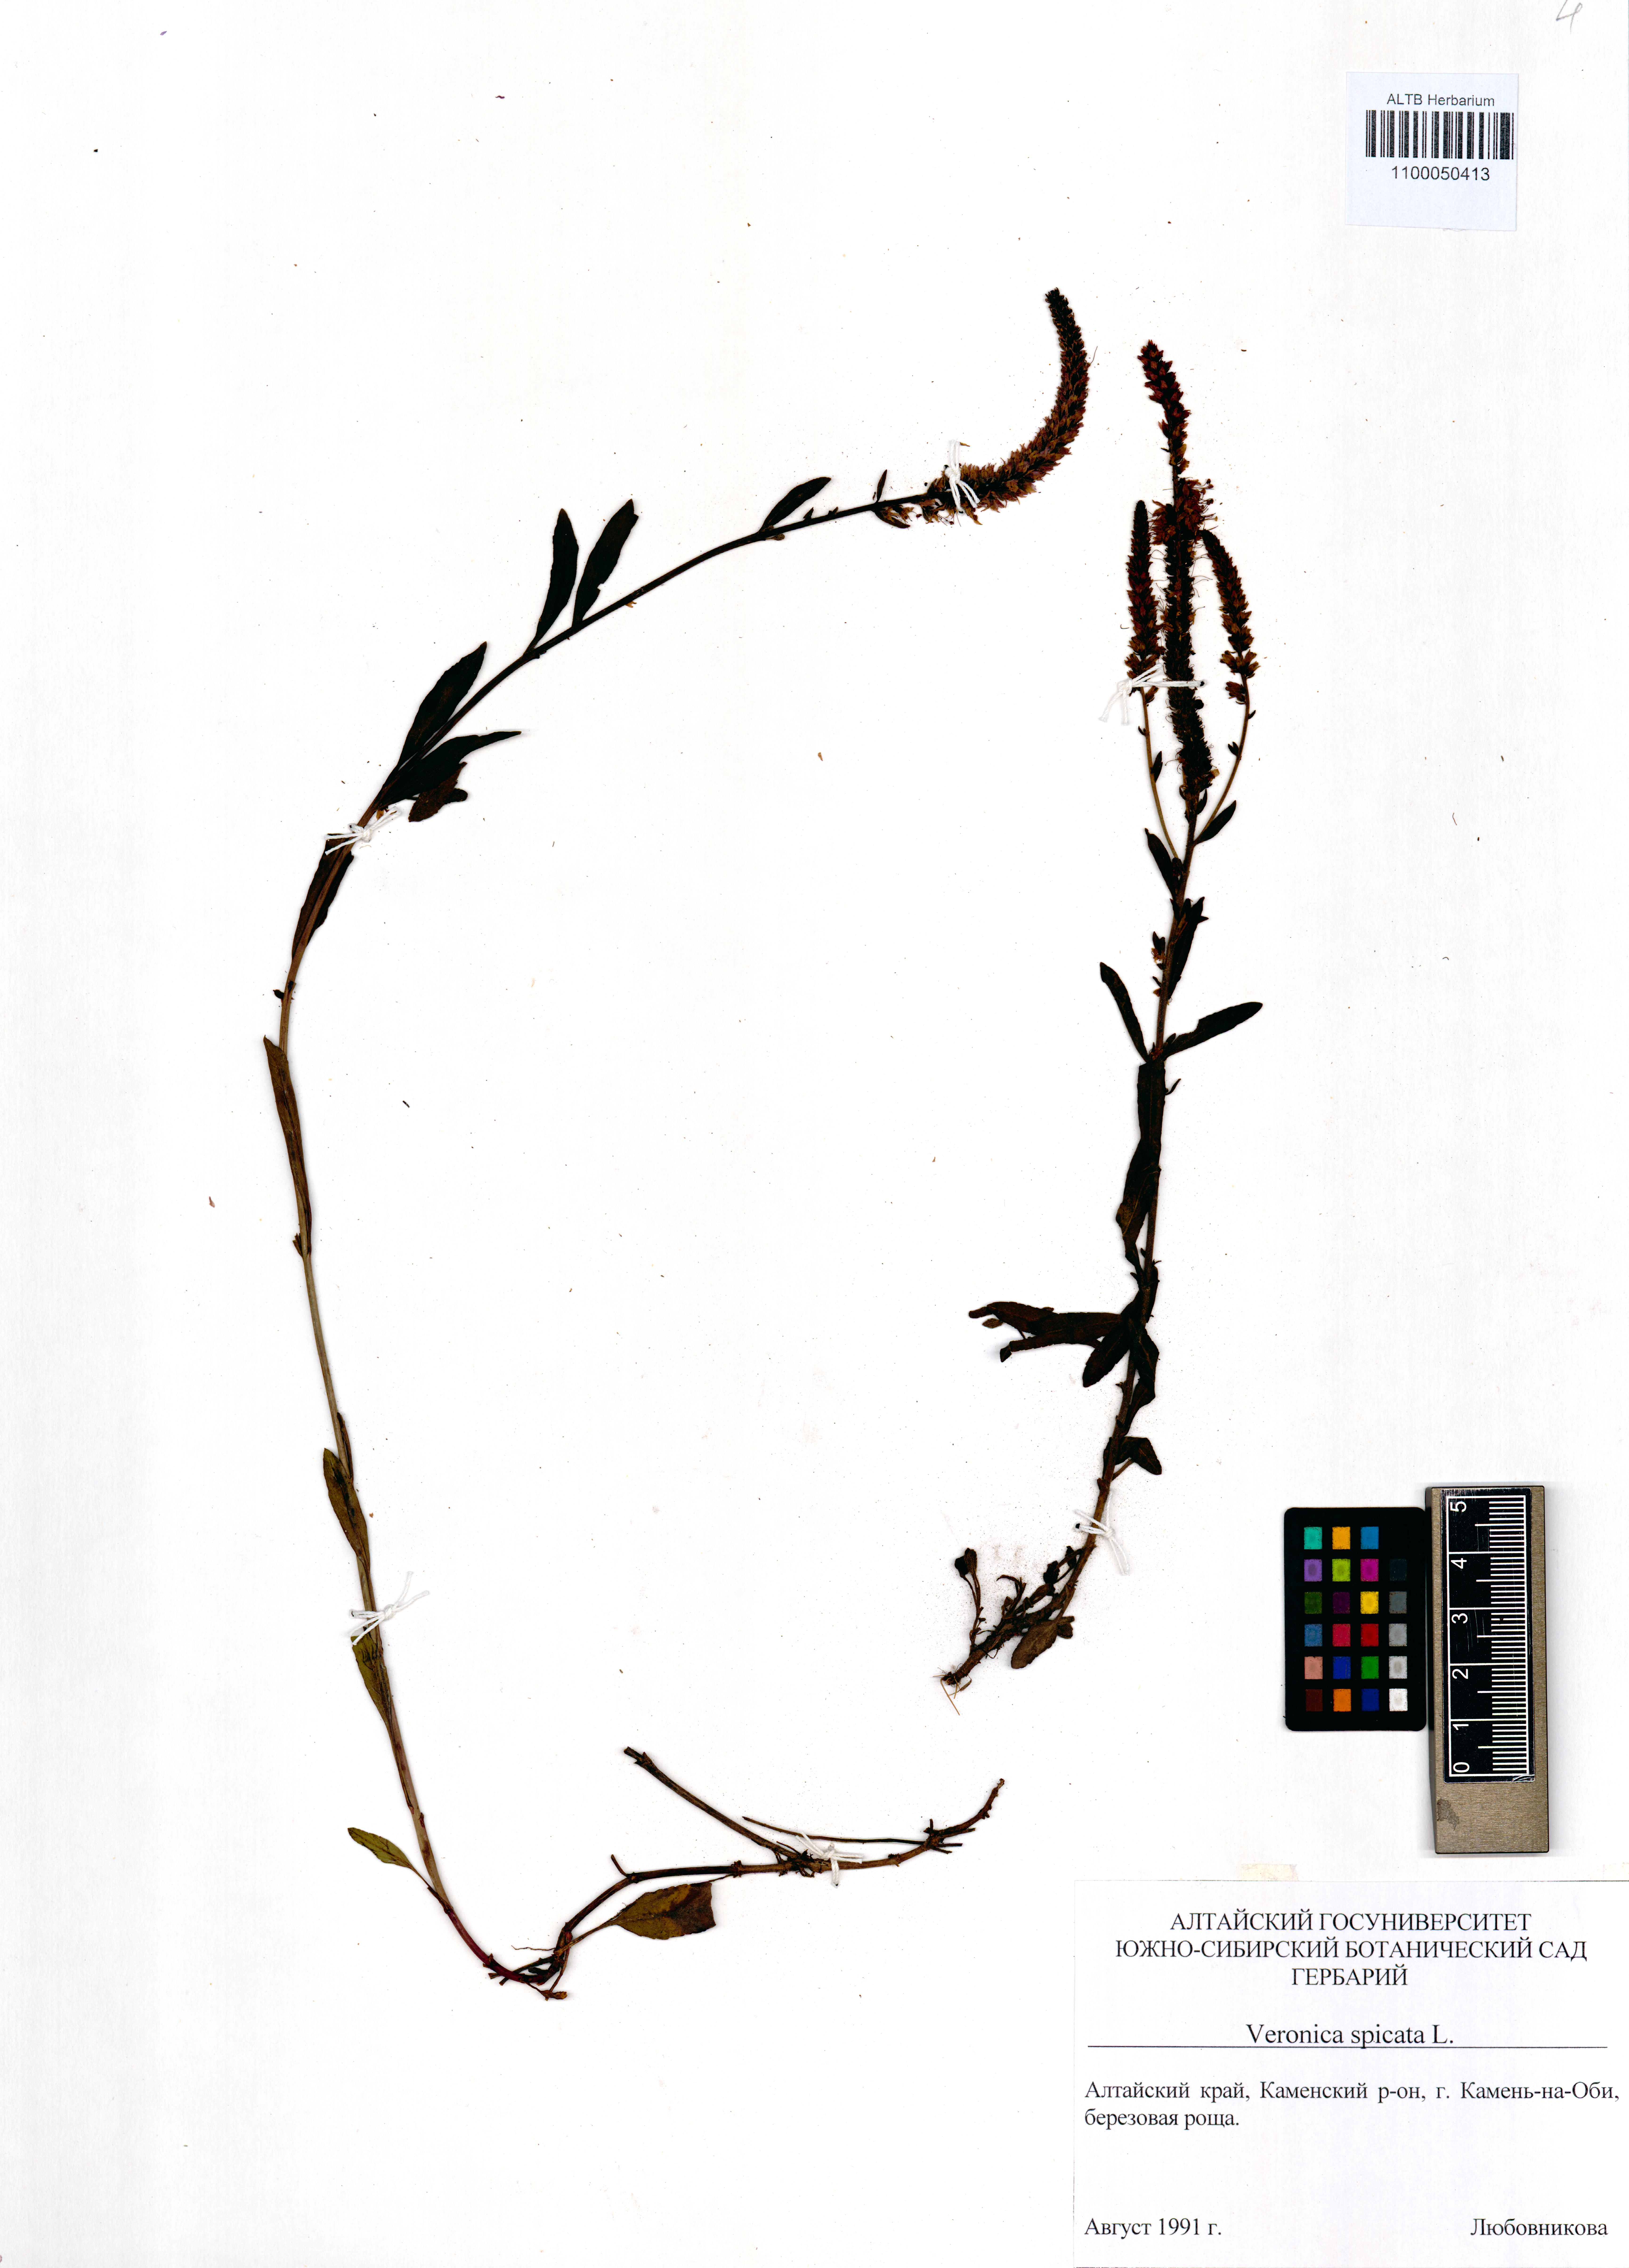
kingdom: Plantae
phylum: Tracheophyta
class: Magnoliopsida
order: Lamiales
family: Plantaginaceae
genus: Veronica
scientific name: Veronica spicata
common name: Spiked speedwell
